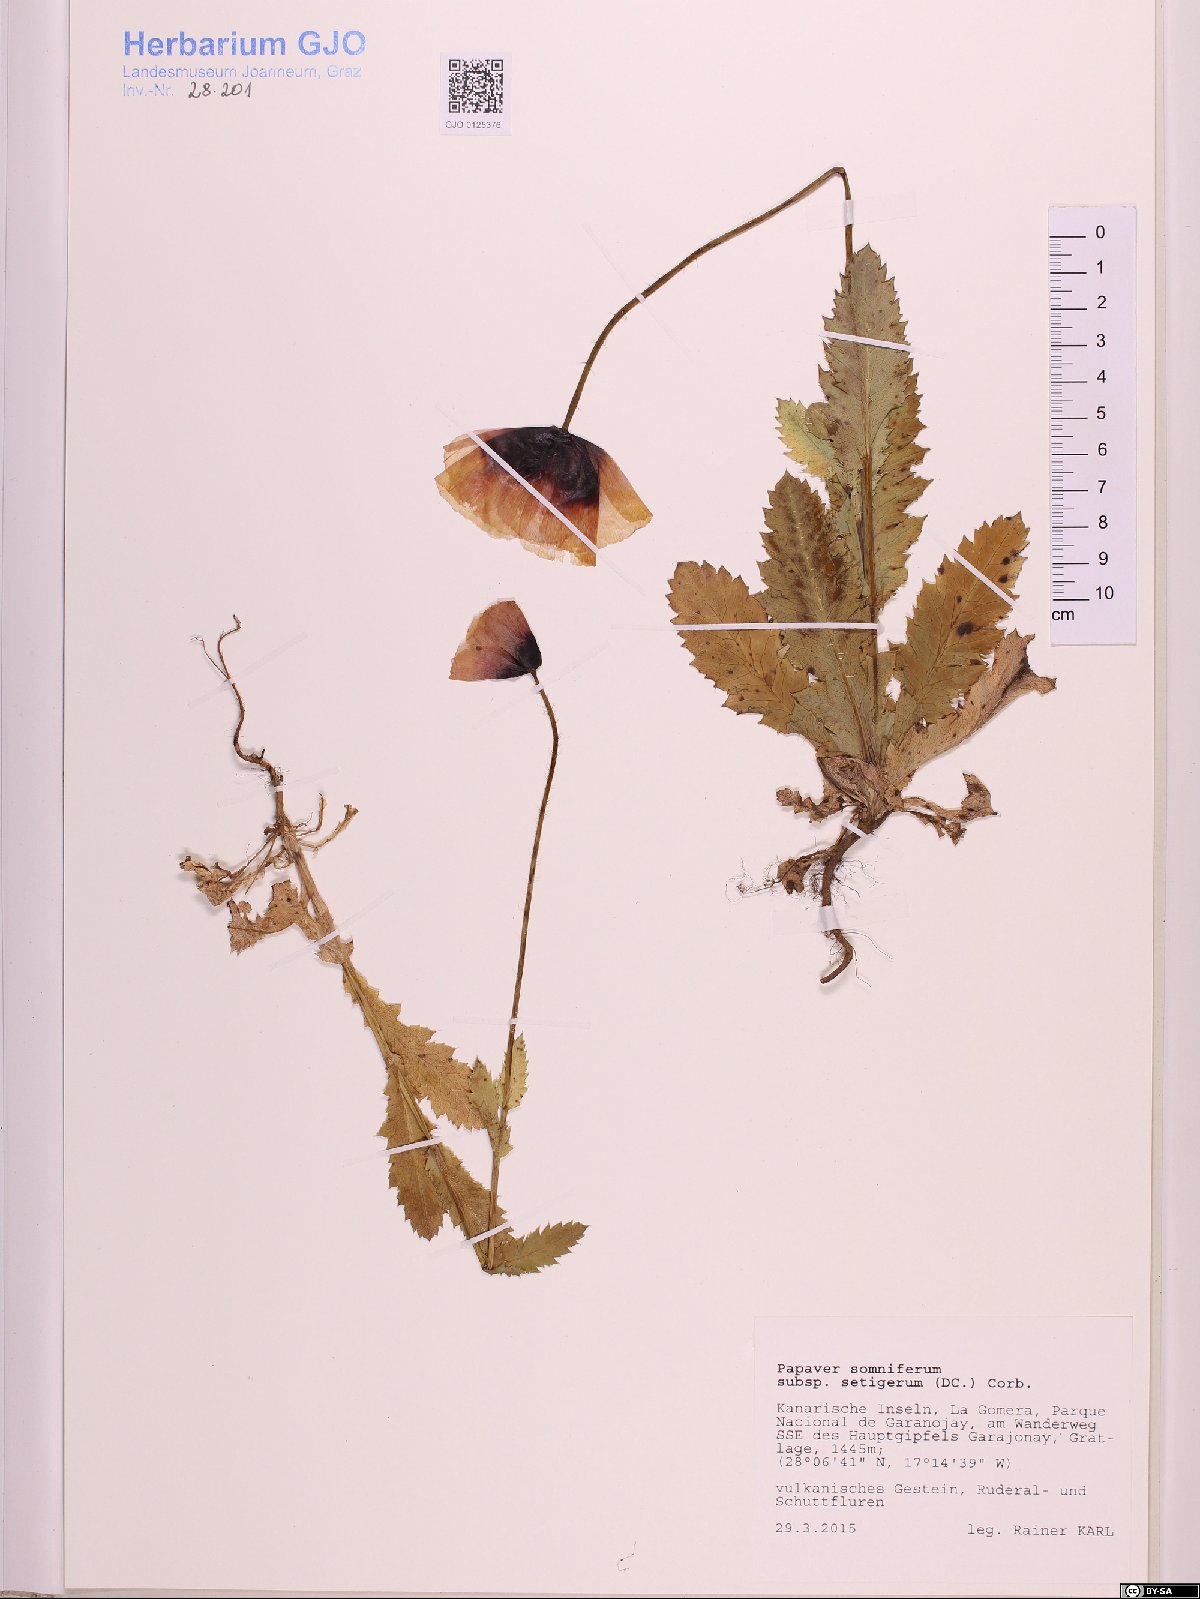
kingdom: Plantae
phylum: Tracheophyta
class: Magnoliopsida
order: Ranunculales
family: Papaveraceae
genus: Papaver
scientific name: Papaver setigerum
